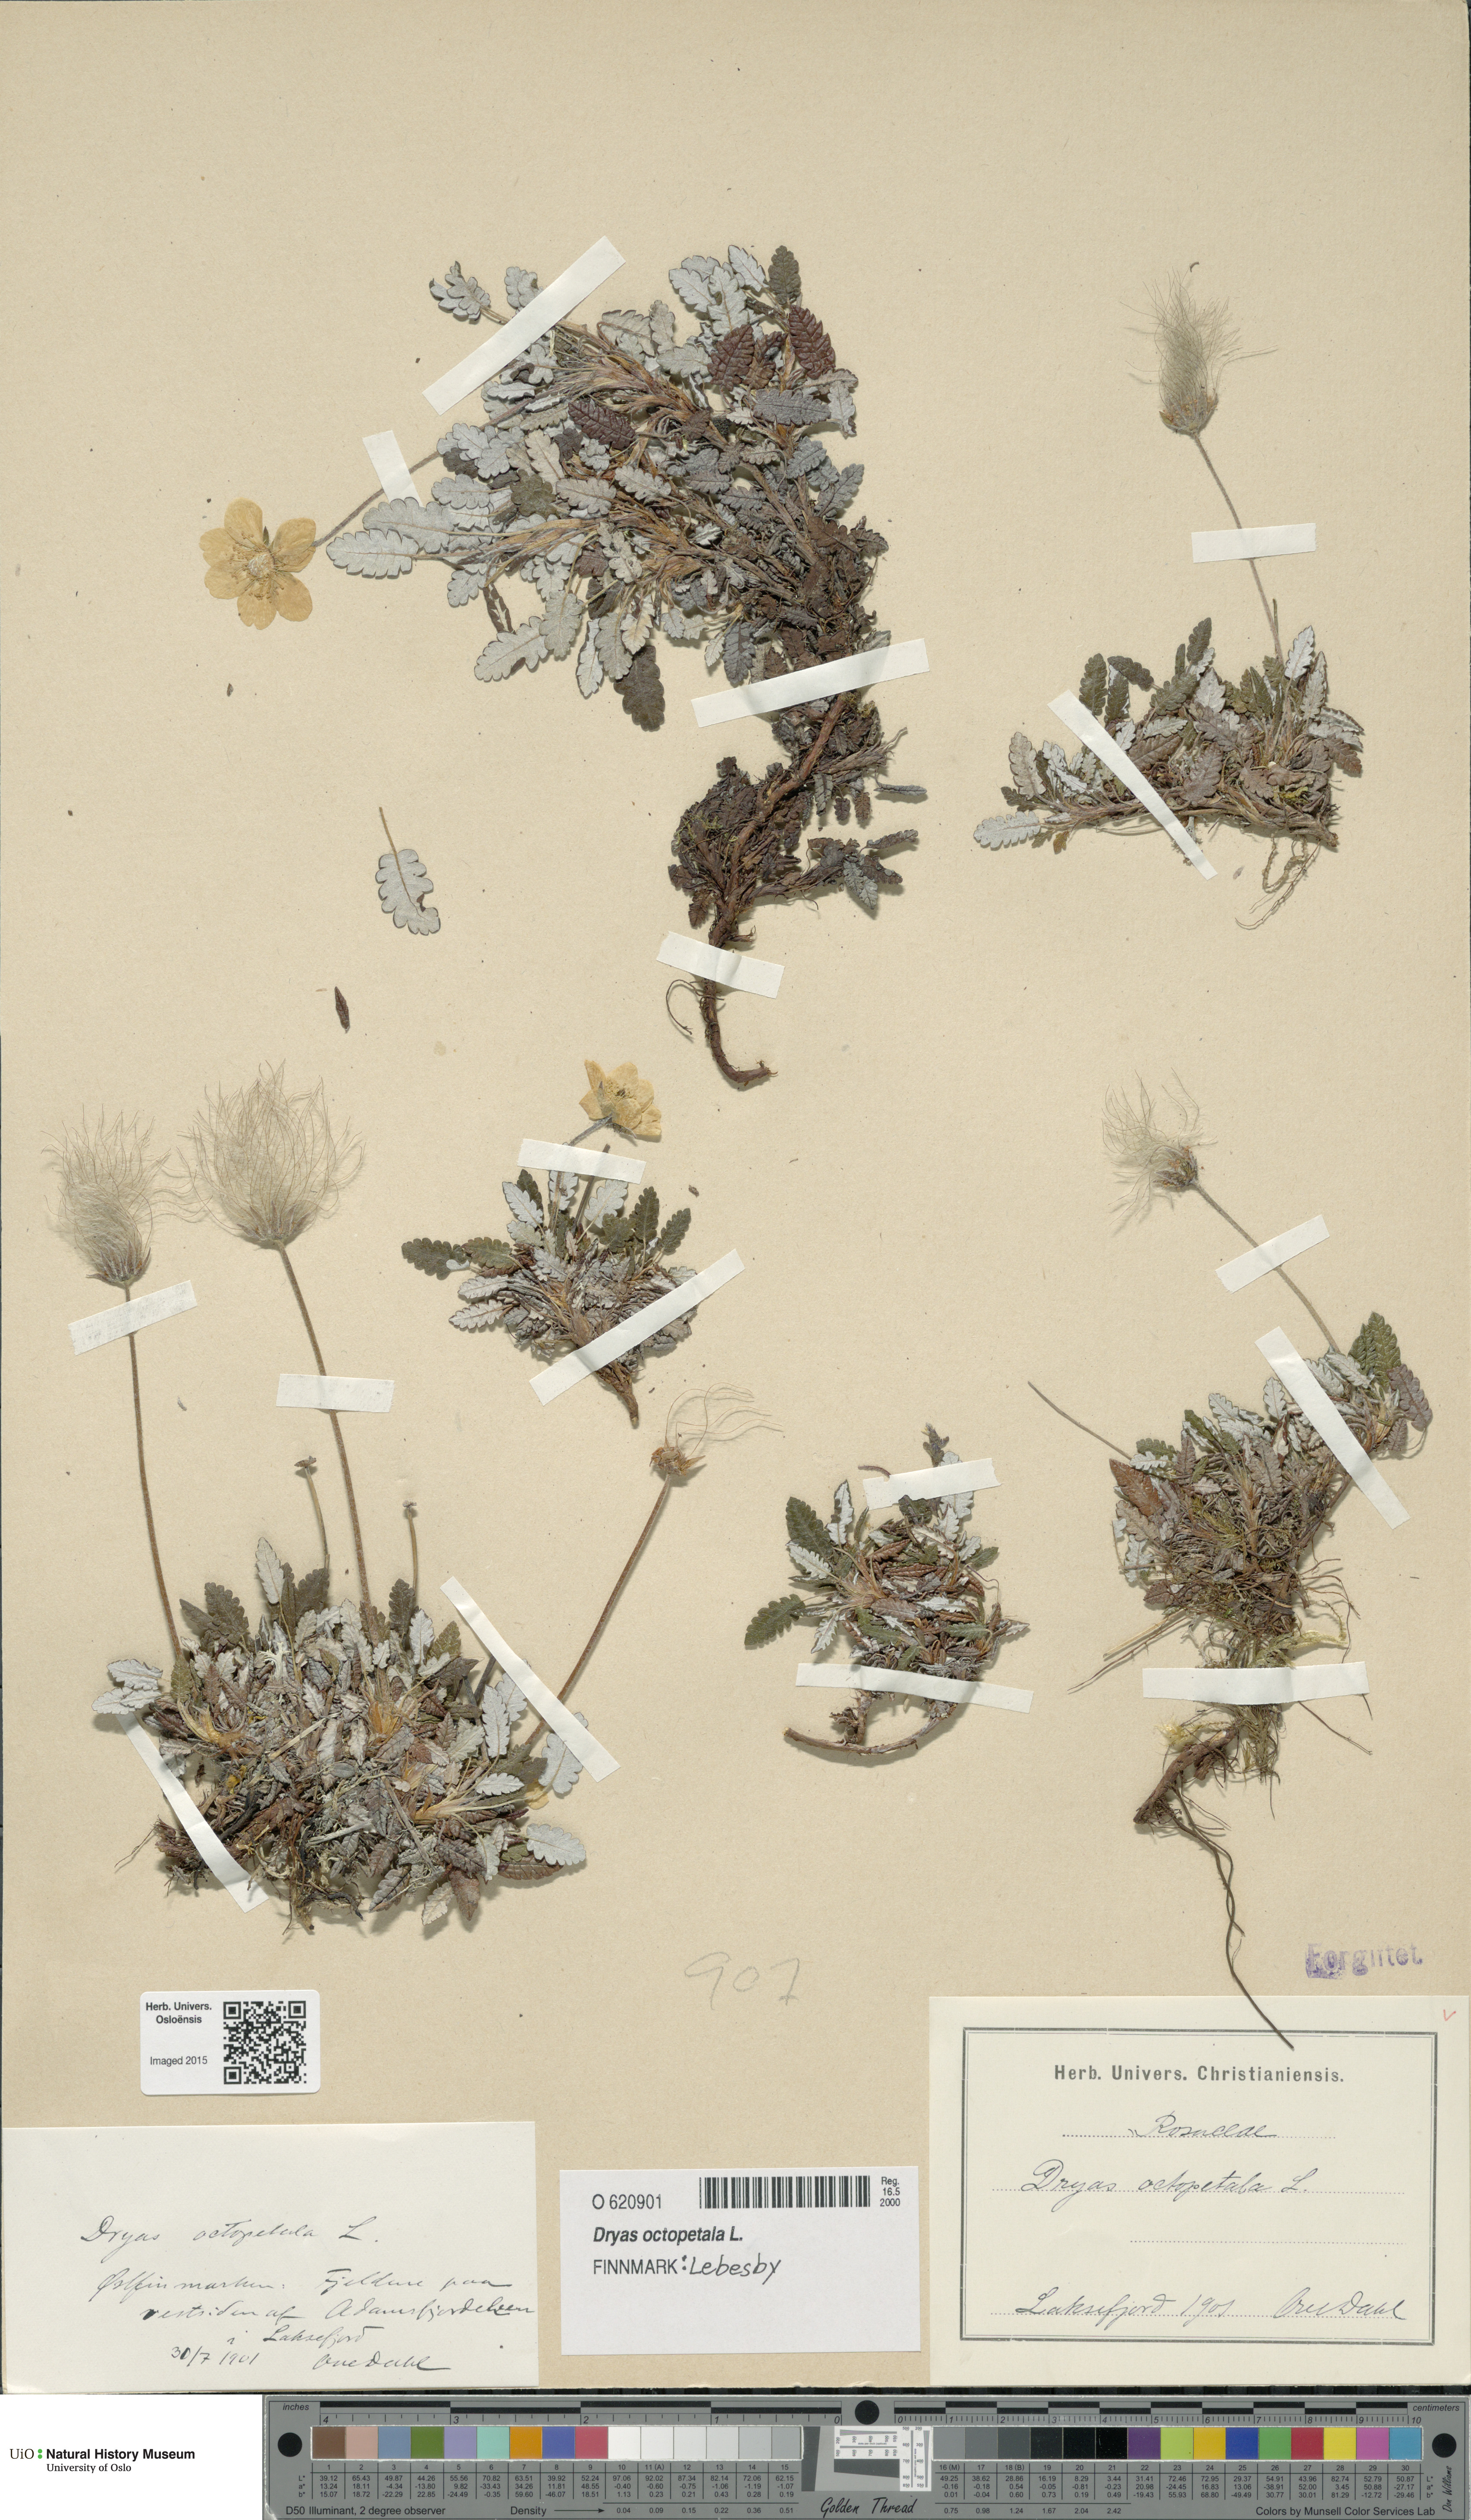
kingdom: Plantae
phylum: Tracheophyta
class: Magnoliopsida
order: Rosales
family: Rosaceae
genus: Dryas
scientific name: Dryas octopetala
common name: Eight-petal mountain-avens
